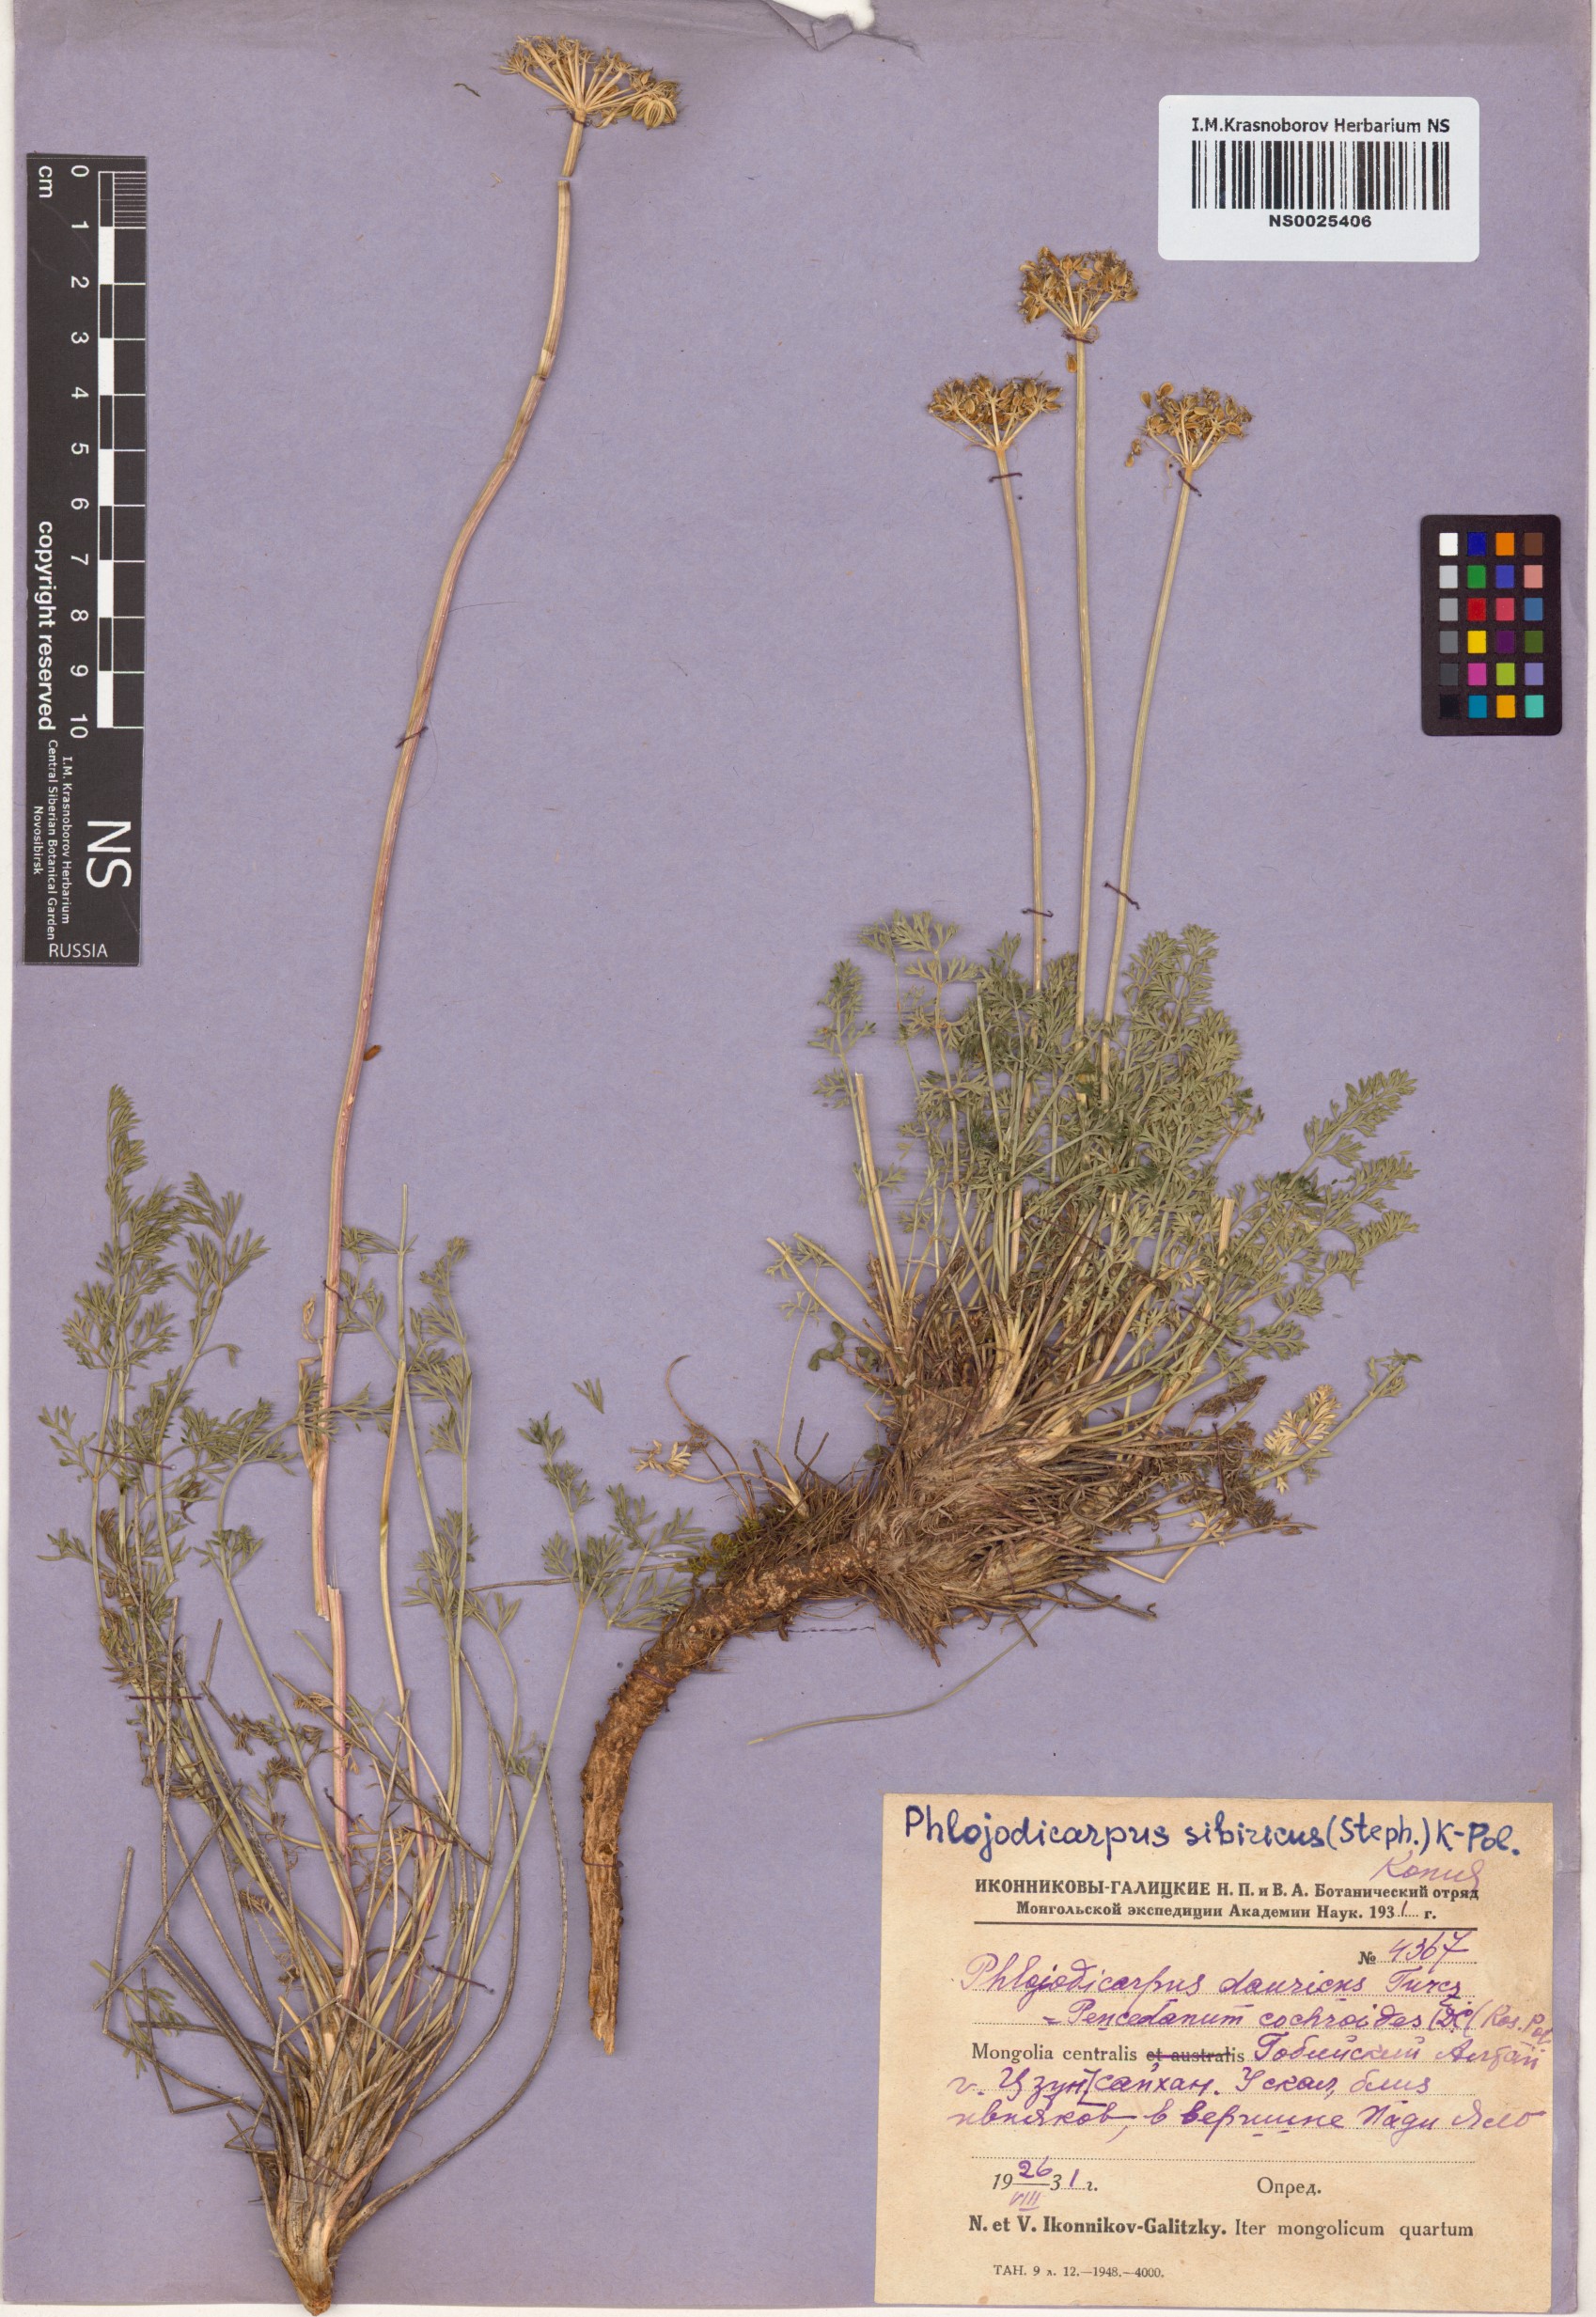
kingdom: Plantae
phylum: Tracheophyta
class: Magnoliopsida
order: Apiales
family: Apiaceae
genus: Phlojodicarpus
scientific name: Phlojodicarpus sibiricus
